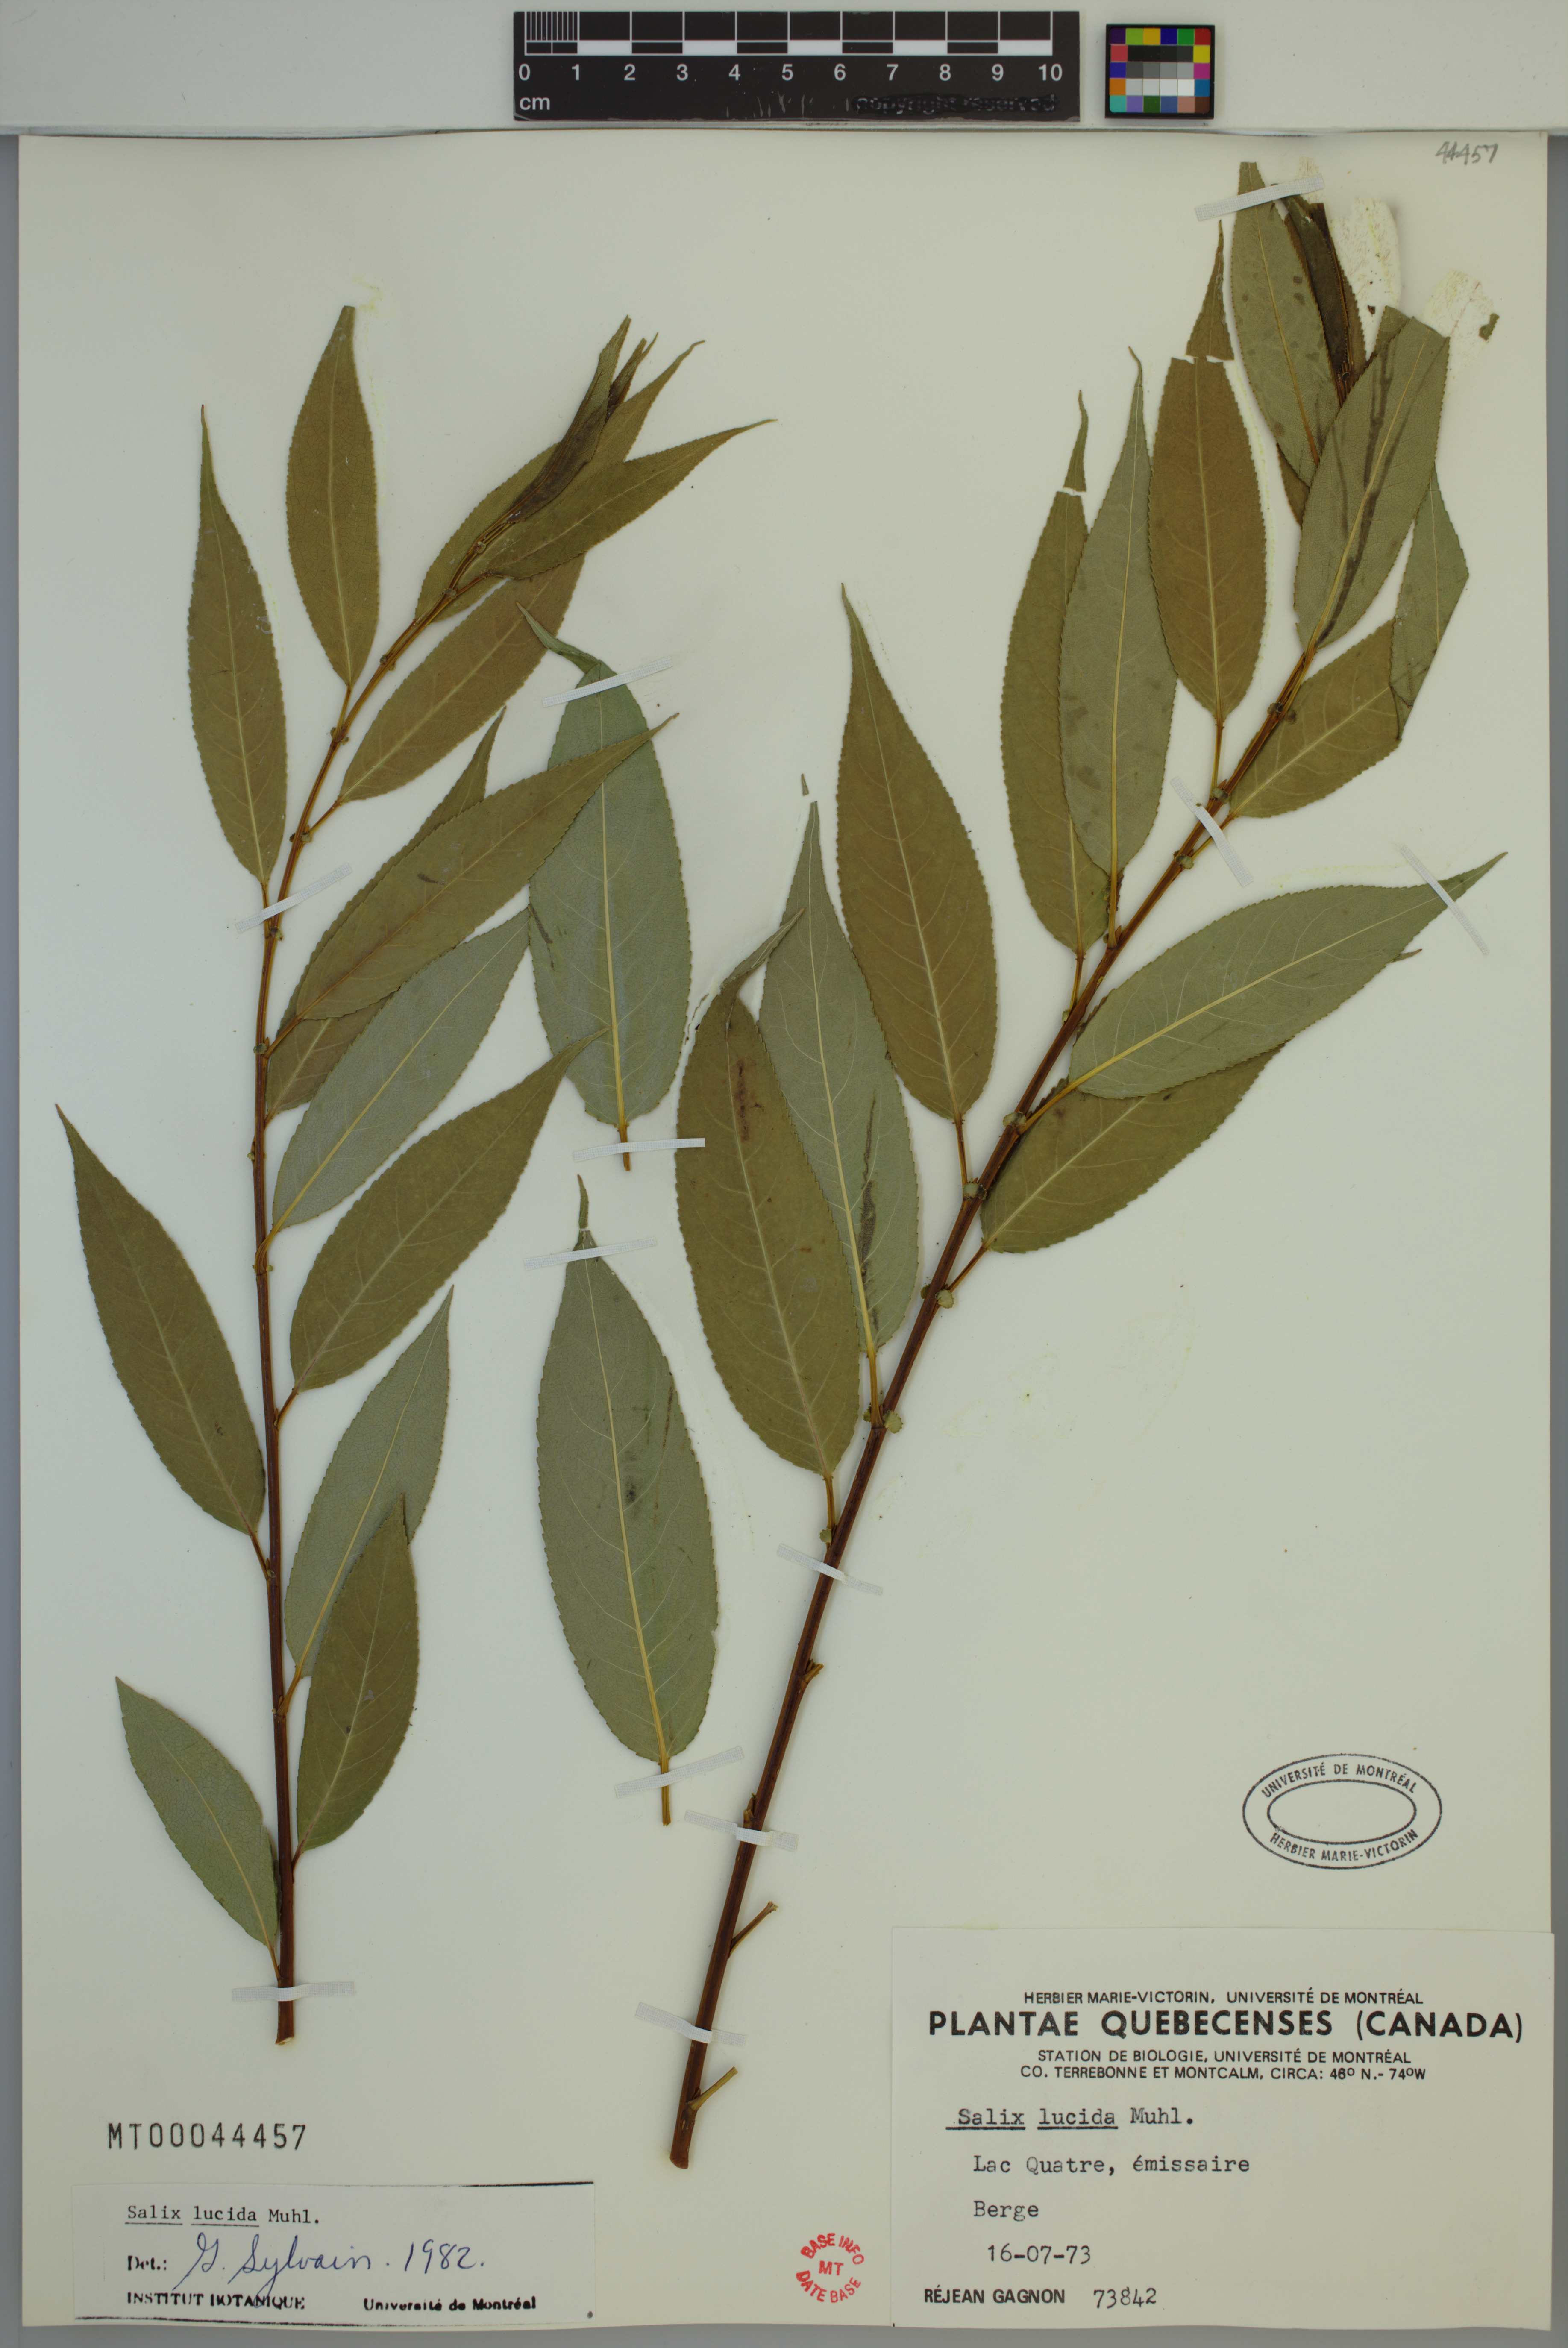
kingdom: Plantae
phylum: Tracheophyta
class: Magnoliopsida
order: Malpighiales
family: Salicaceae
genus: Salix
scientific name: Salix lucida
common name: Shining willow
